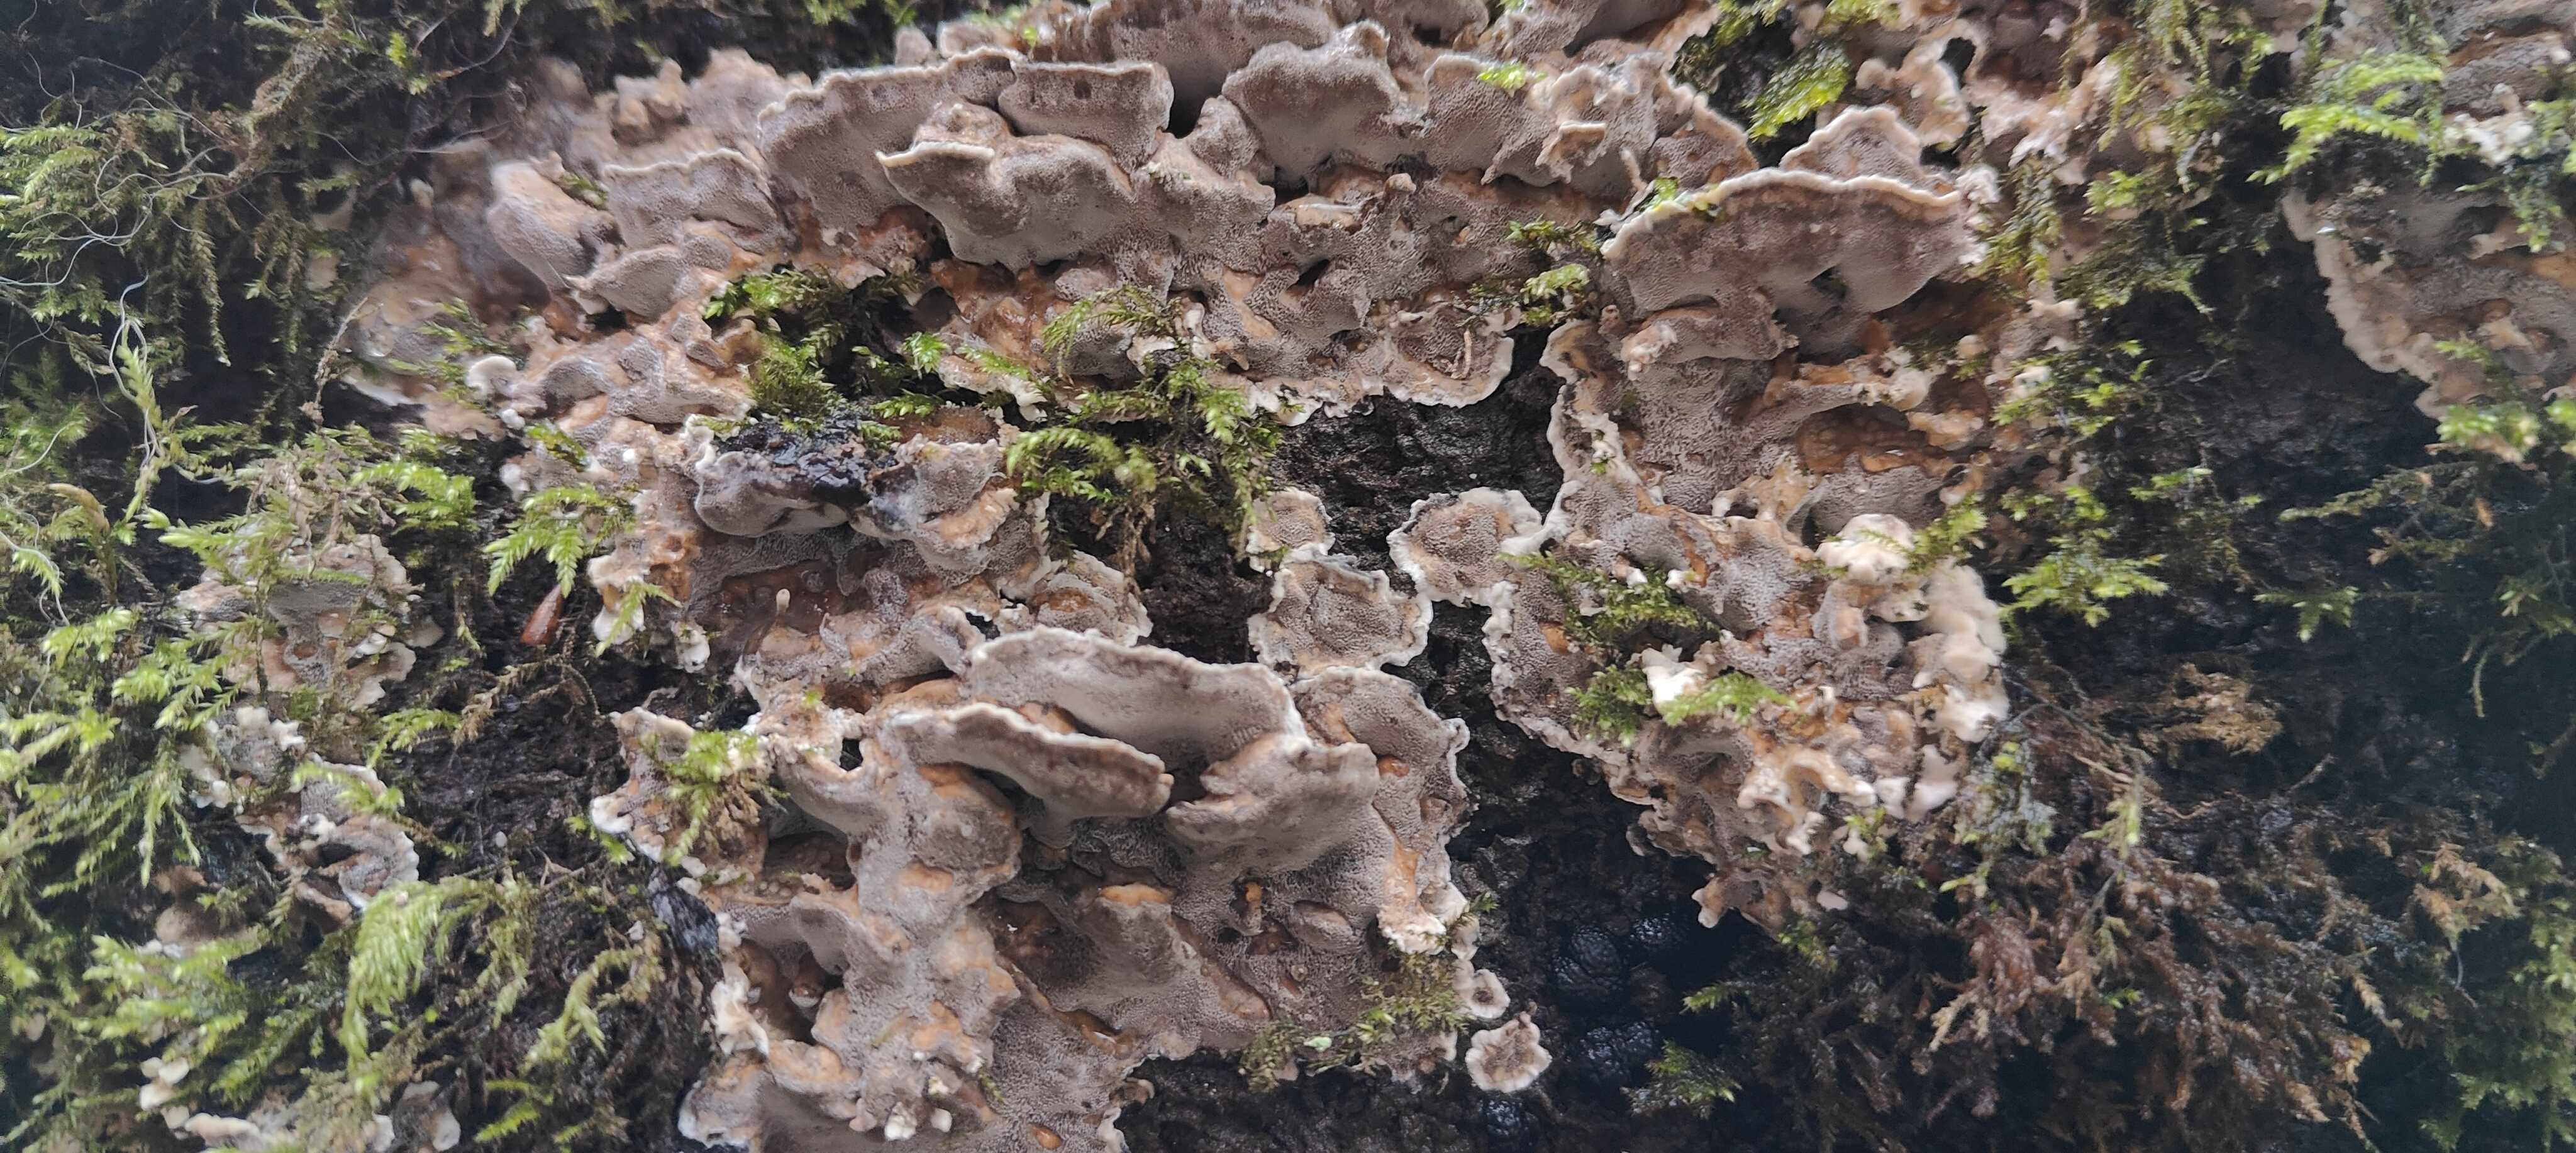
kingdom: Fungi
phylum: Basidiomycota
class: Agaricomycetes
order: Polyporales
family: Phanerochaetaceae
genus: Bjerkandera
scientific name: Bjerkandera adusta
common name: sveden sodporesvamp
